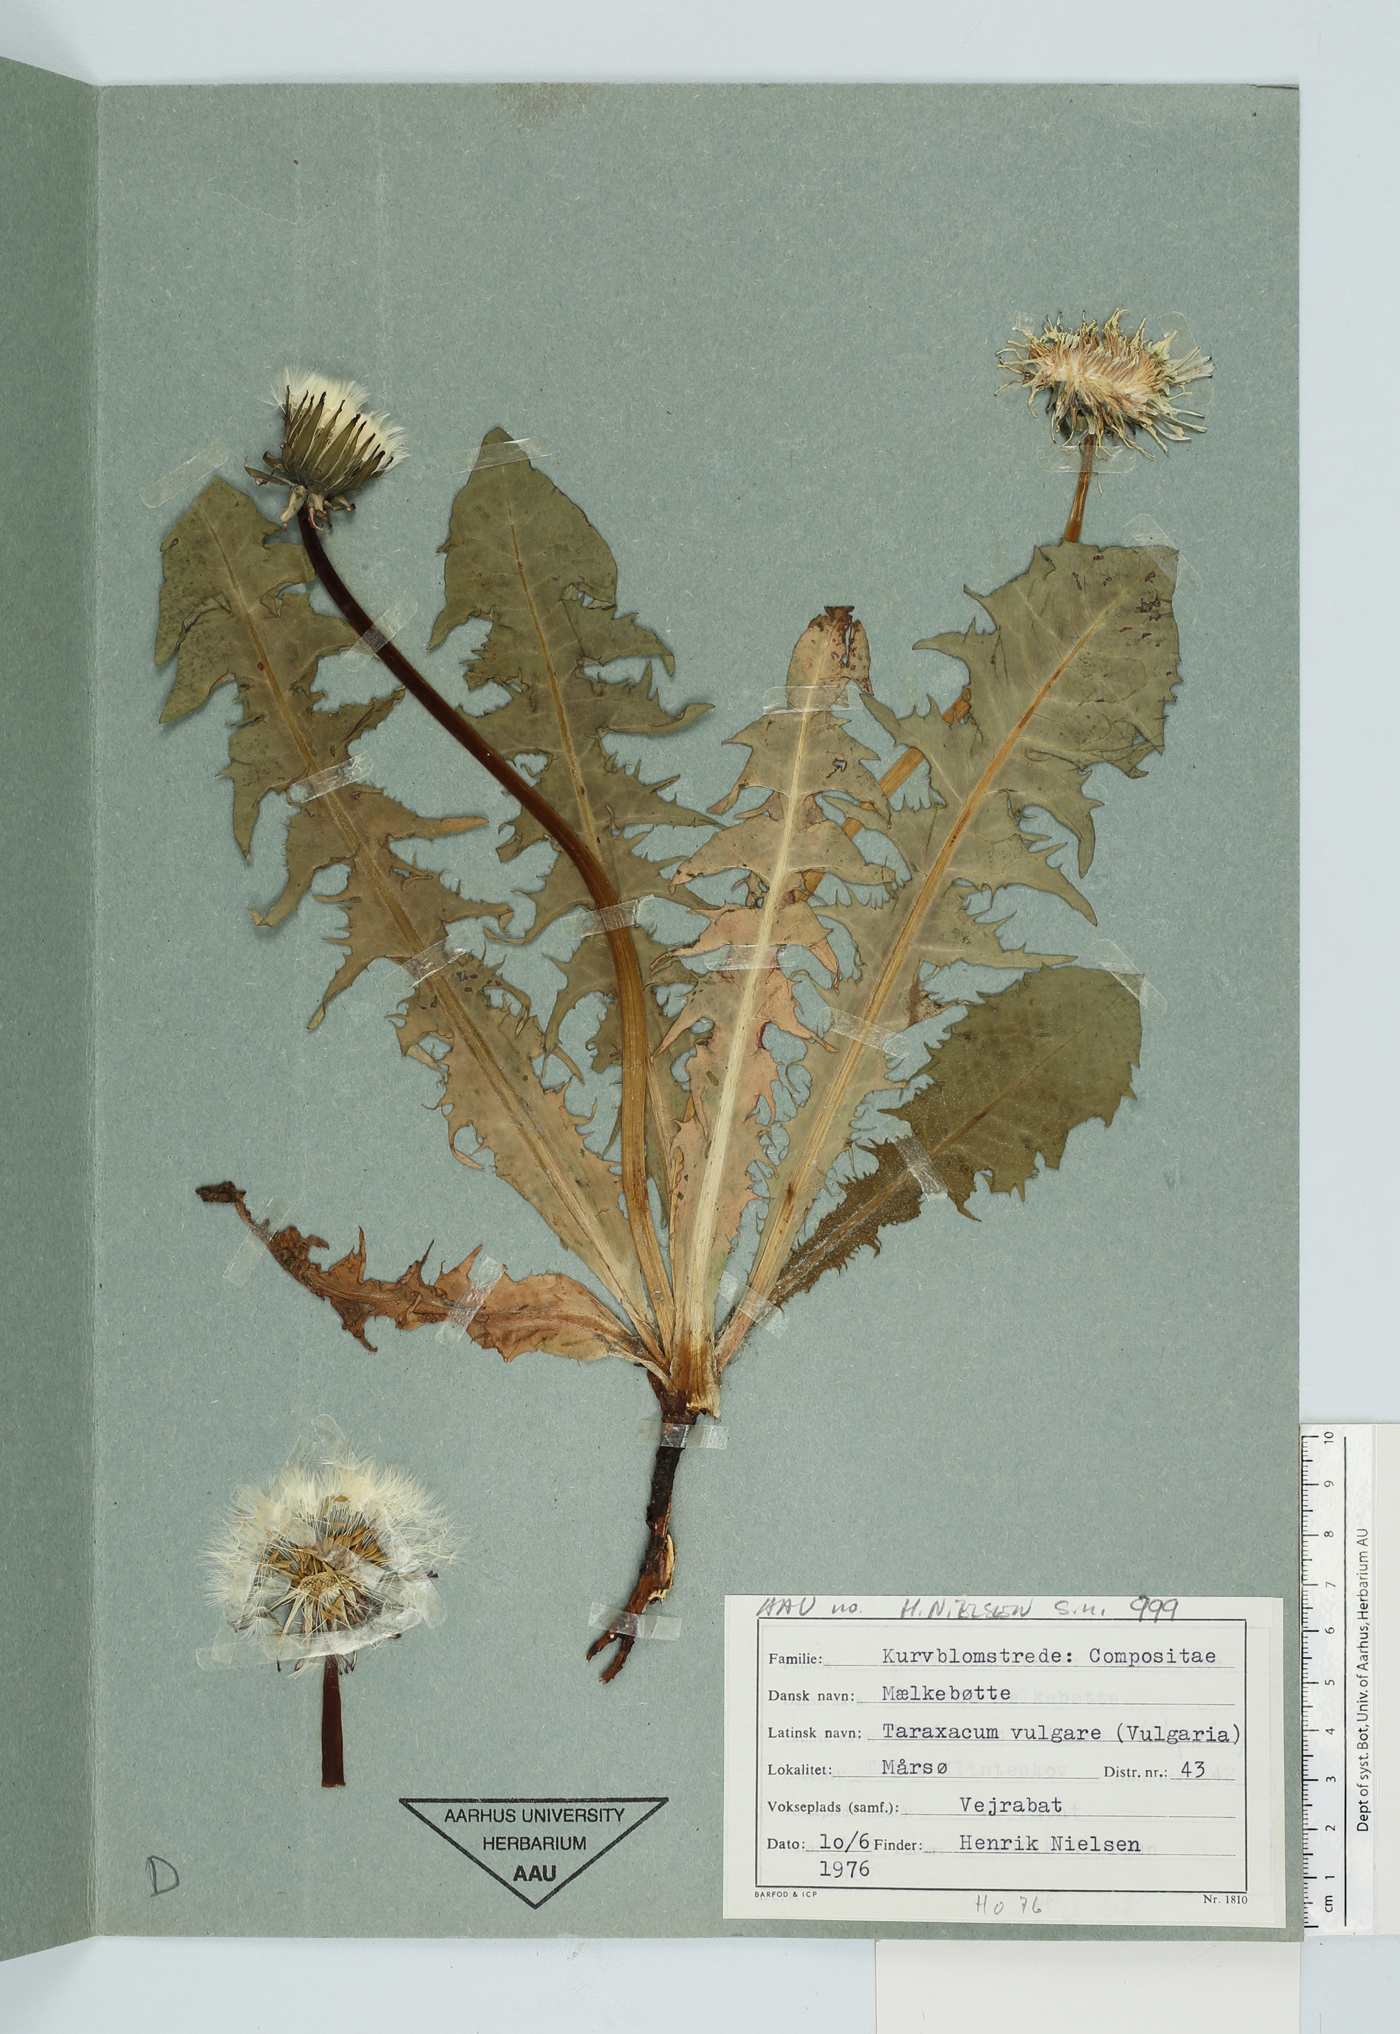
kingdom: Plantae
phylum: Tracheophyta
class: Magnoliopsida
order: Asterales
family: Asteraceae
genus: Taraxacum
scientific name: Taraxacum officinale
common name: Common dandelion
